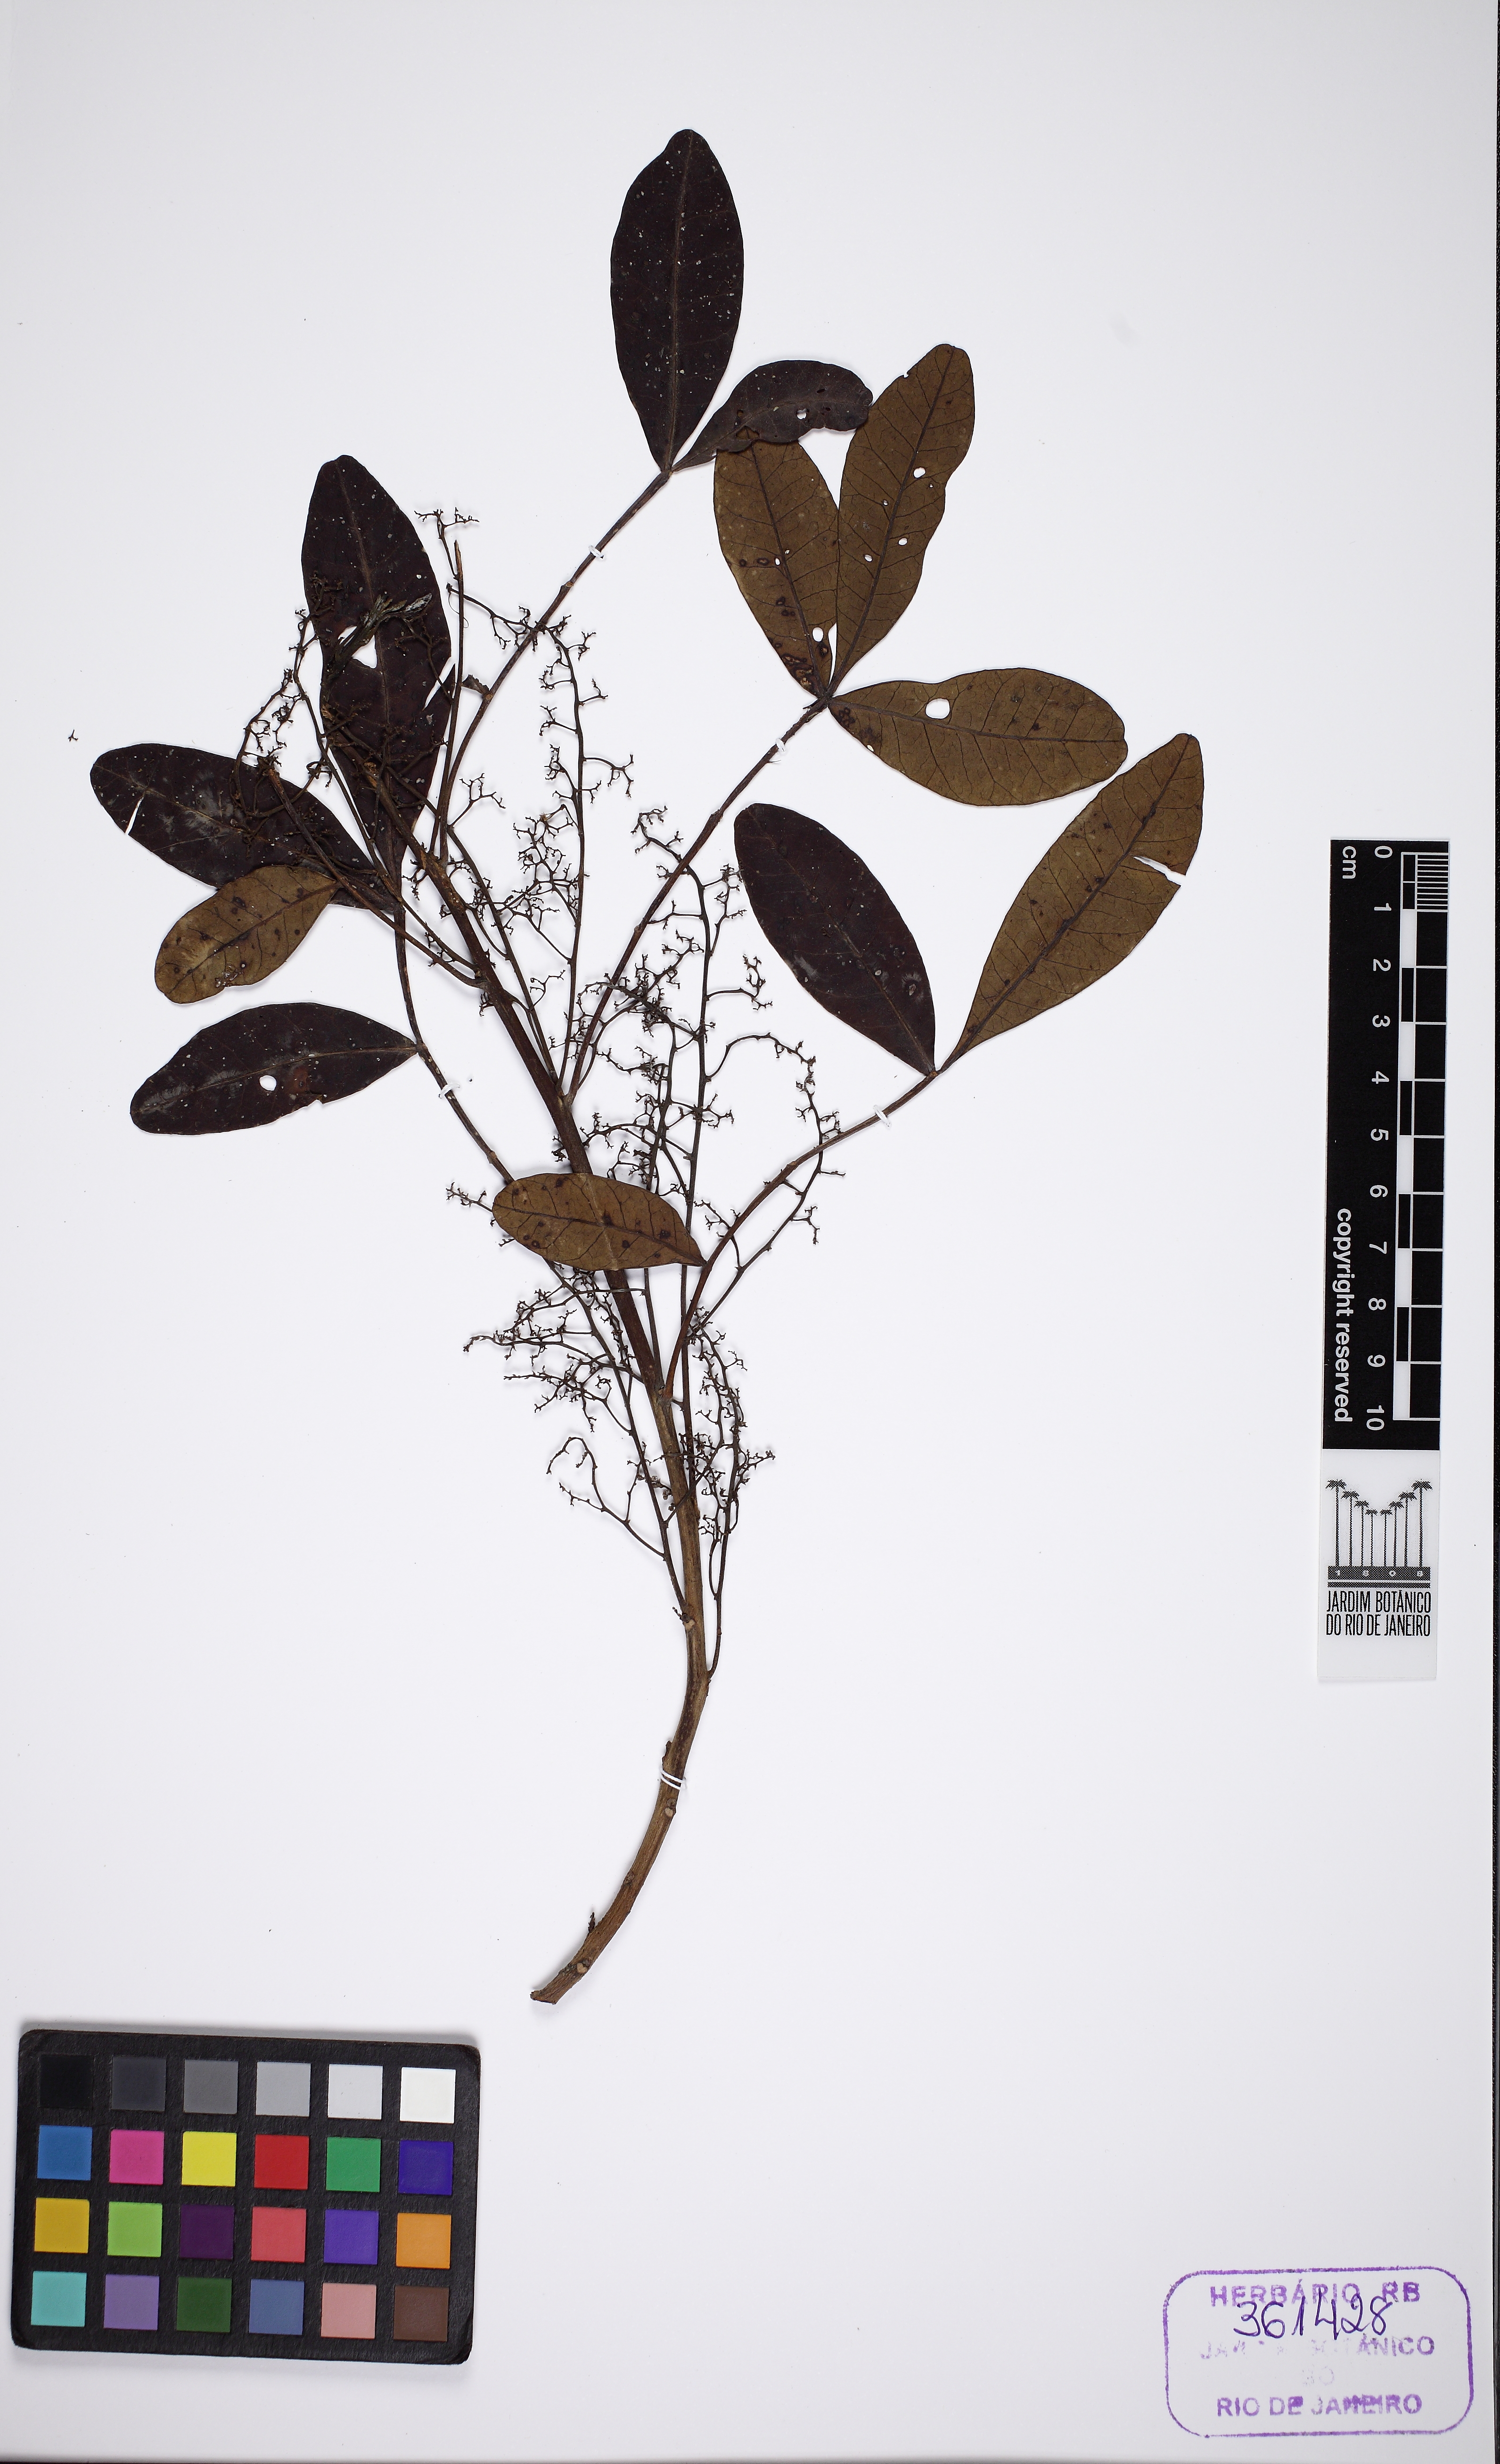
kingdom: Plantae
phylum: Tracheophyta
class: Magnoliopsida
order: Sapindales
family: Anacardiaceae
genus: Schinus
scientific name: Schinus terebinthifolia
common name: Brazilian peppertree
